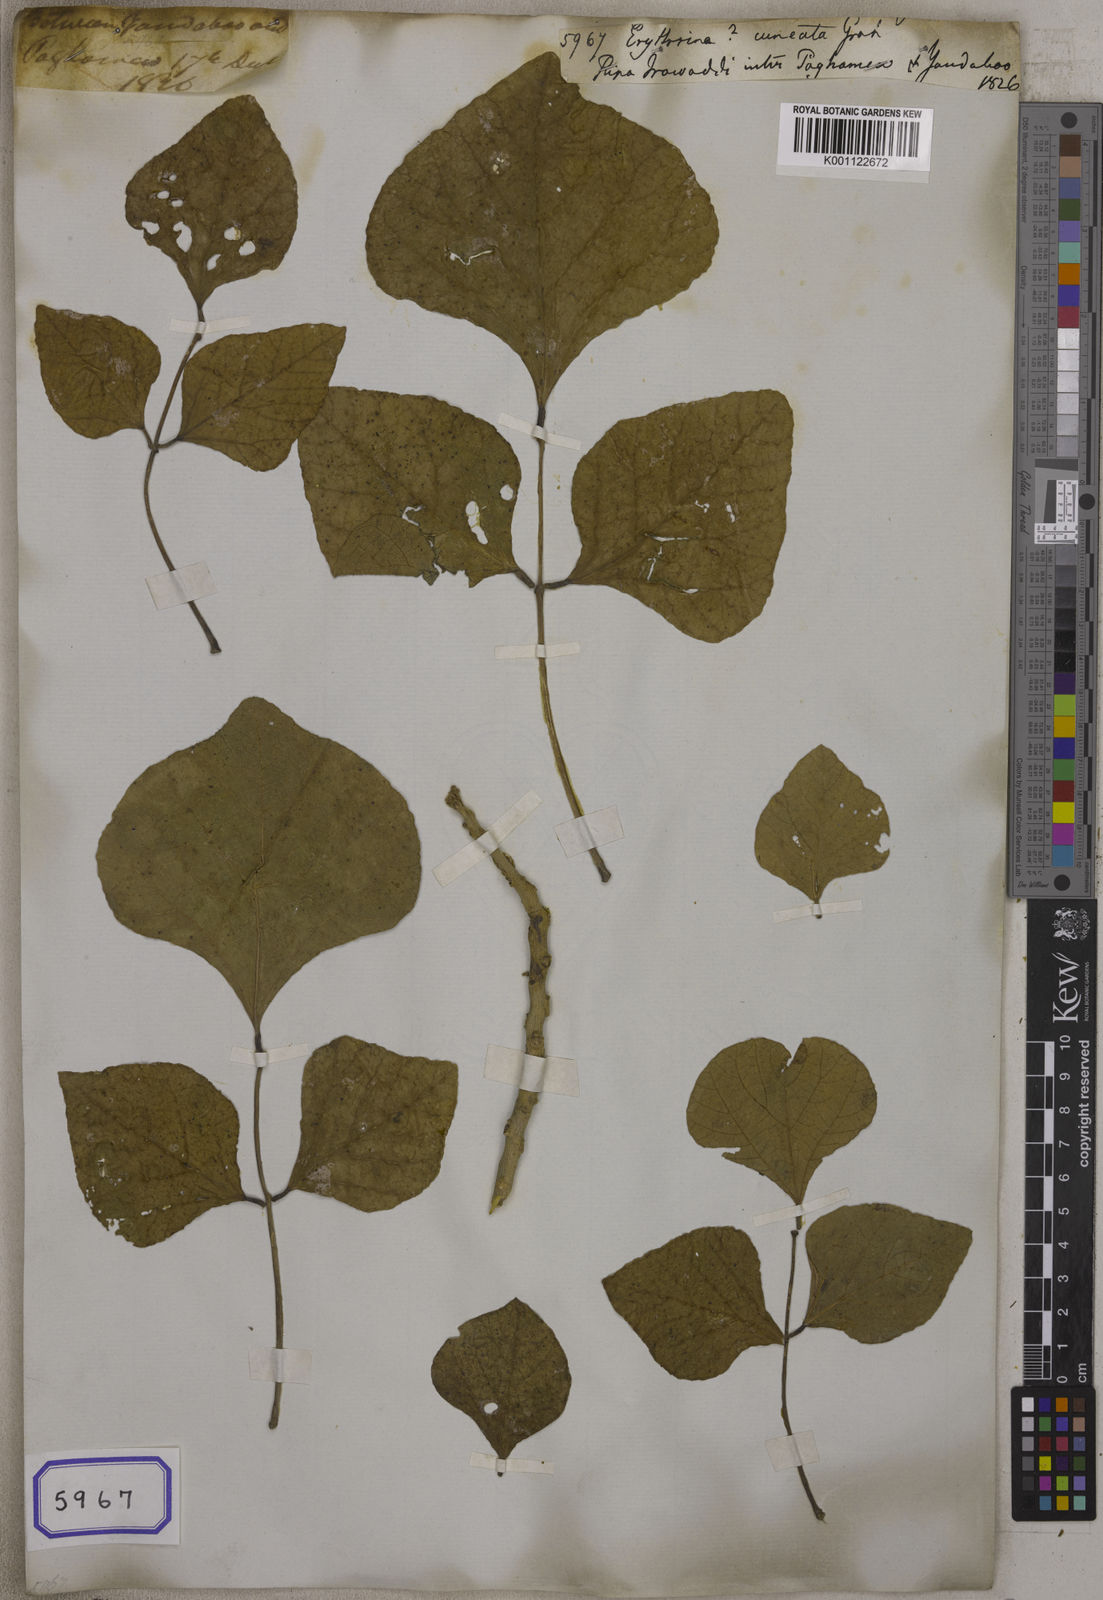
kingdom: Plantae
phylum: Tracheophyta
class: Magnoliopsida
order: Fabales
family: Fabaceae
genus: Erythrina
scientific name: Erythrina
